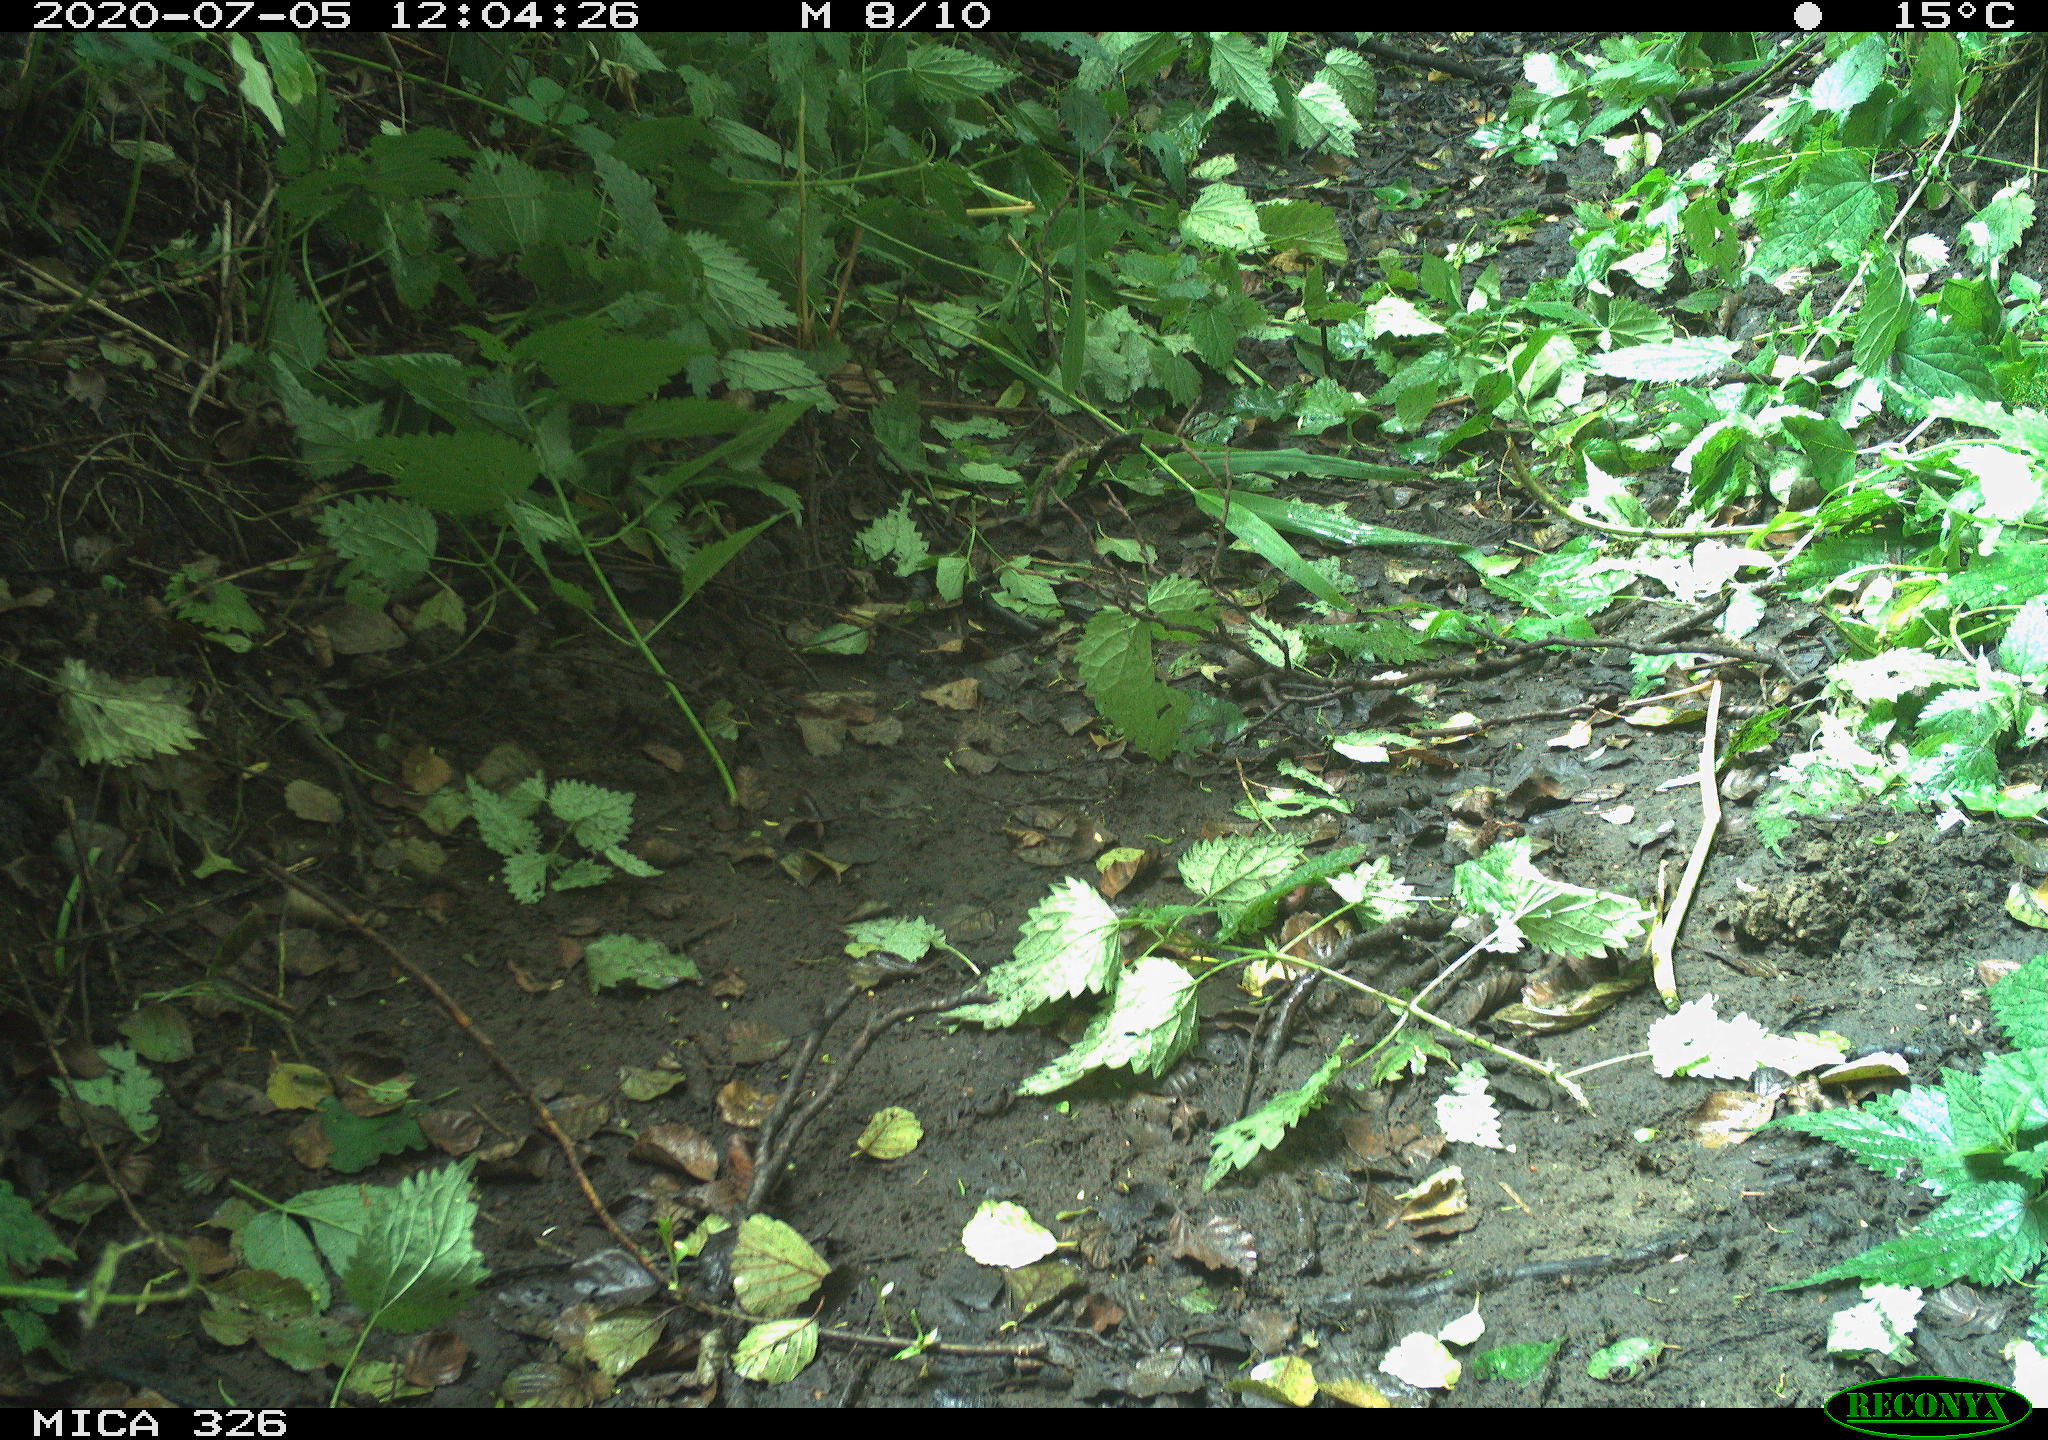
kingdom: Animalia
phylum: Chordata
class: Aves
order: Anseriformes
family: Anatidae
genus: Anas
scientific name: Anas platyrhynchos
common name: Mallard
